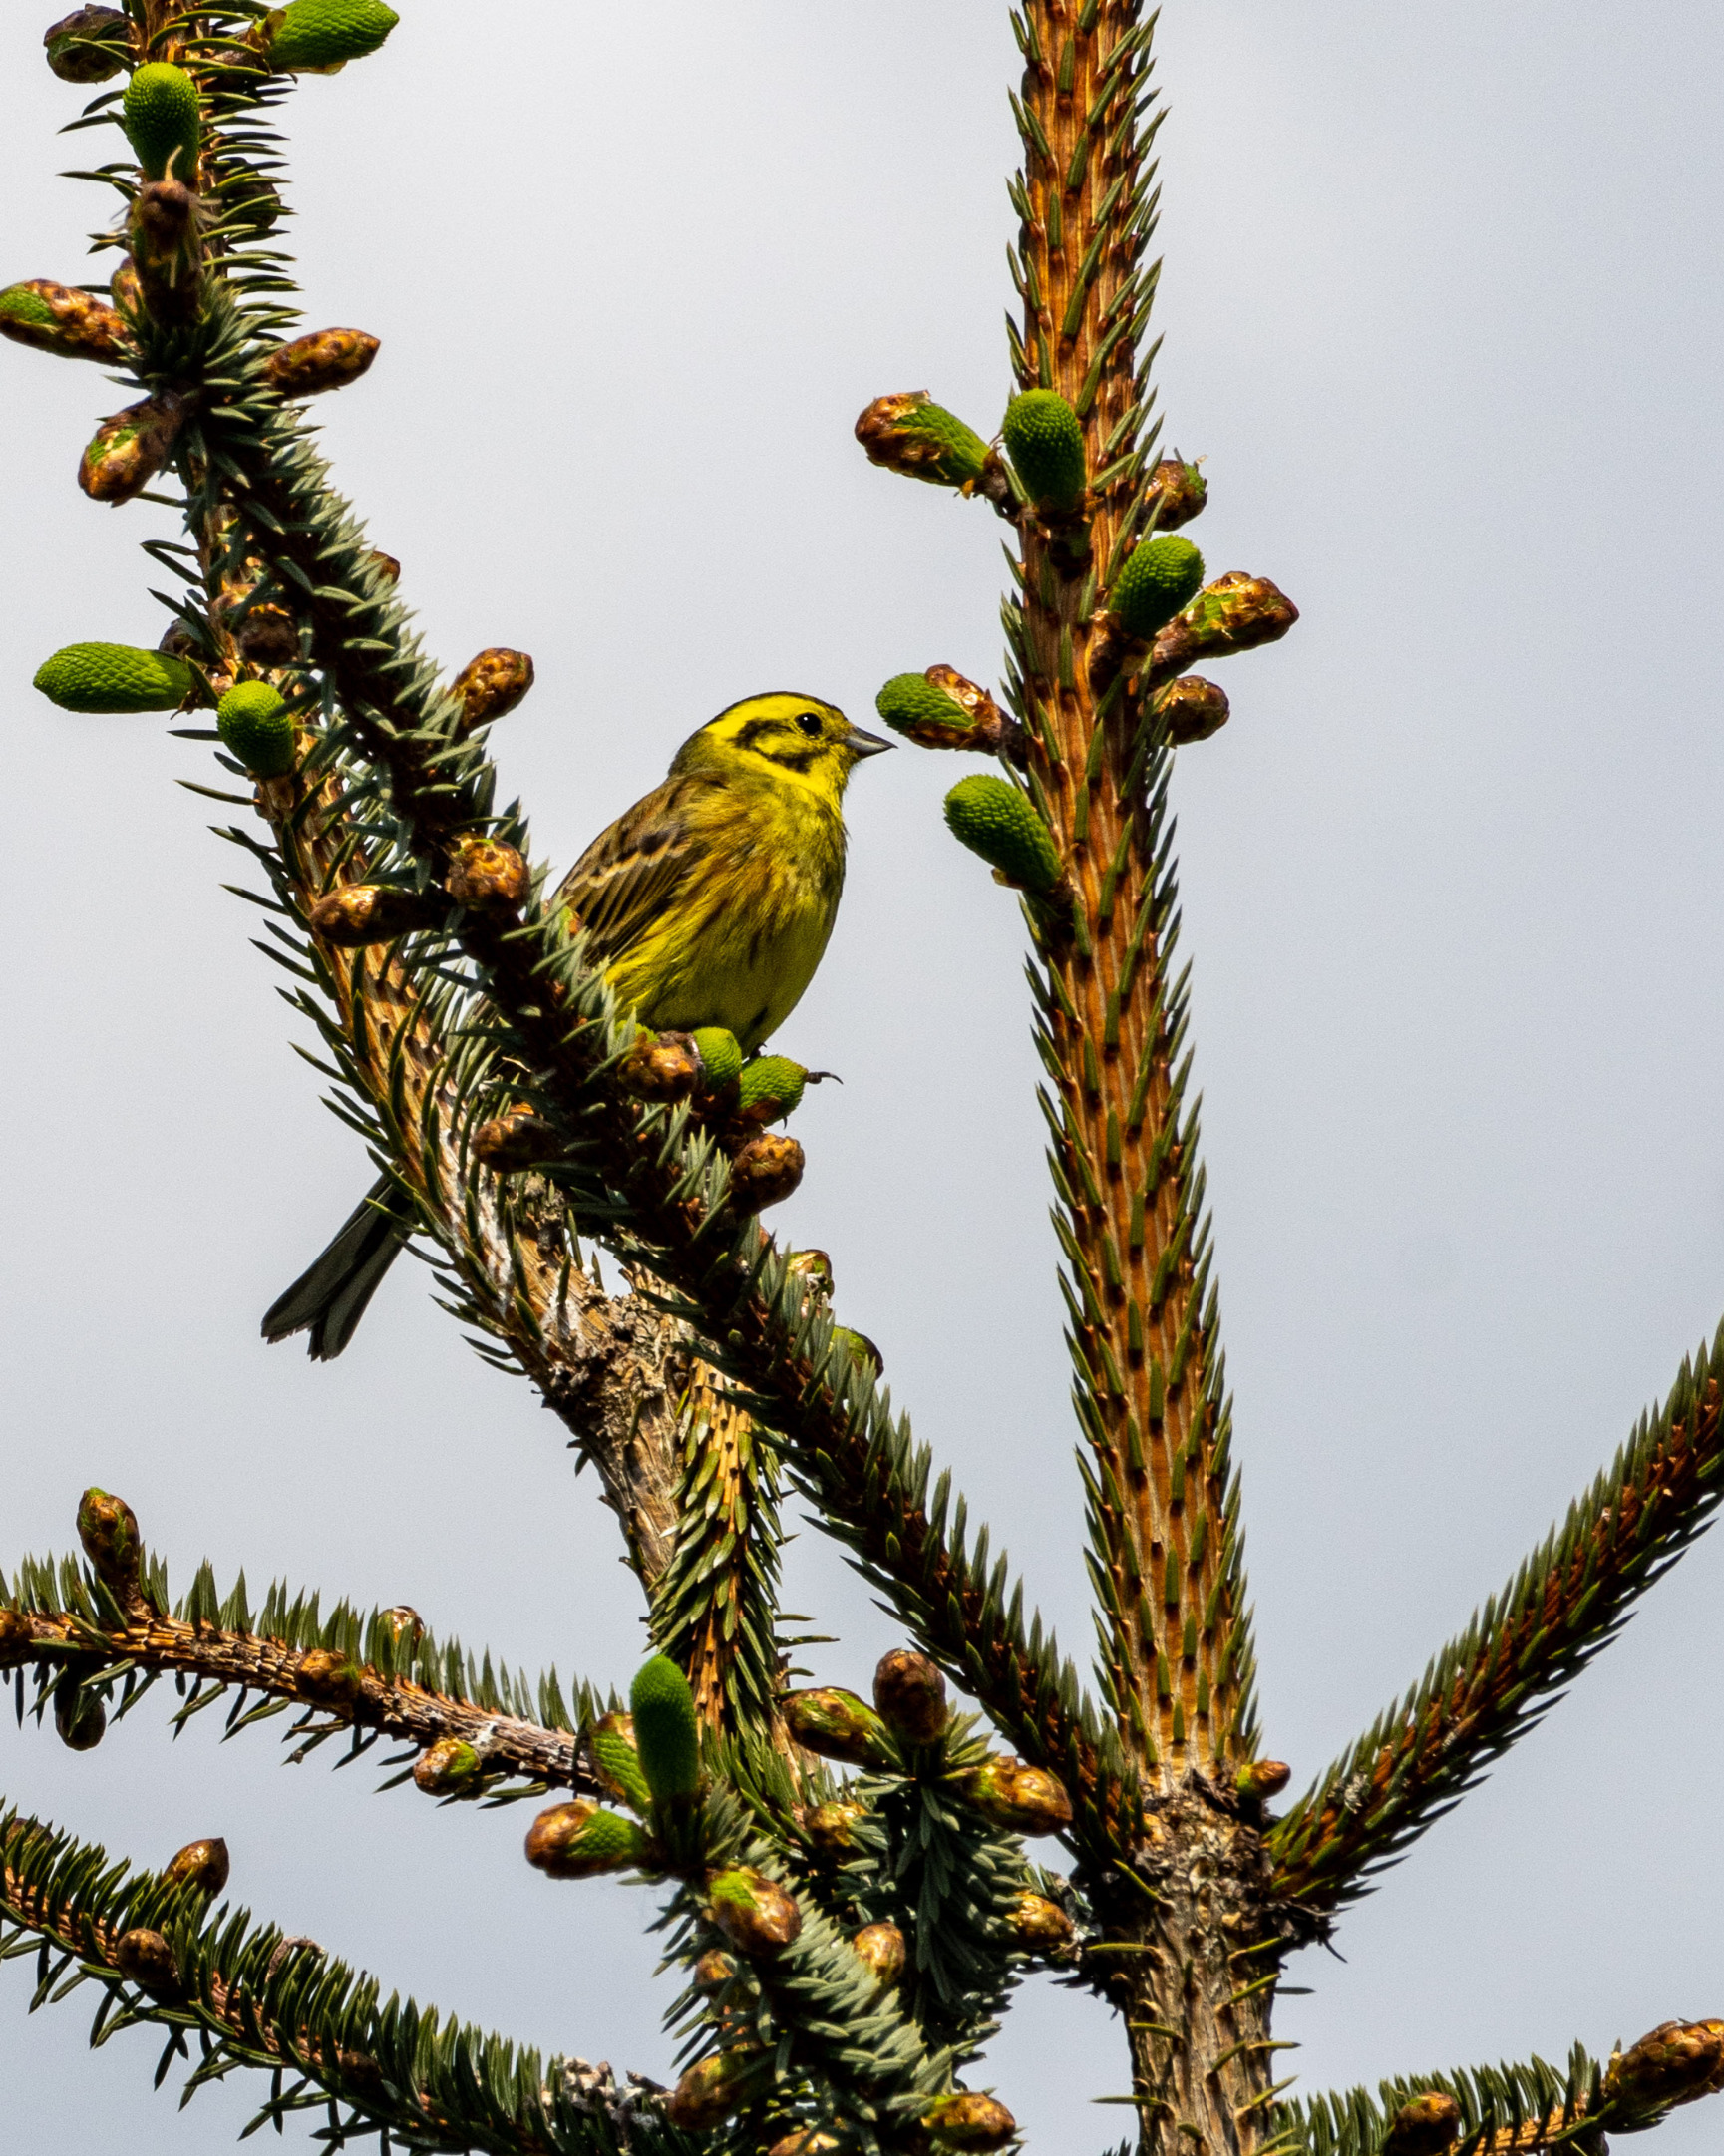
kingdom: Animalia
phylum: Chordata
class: Aves
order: Passeriformes
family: Emberizidae
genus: Emberiza
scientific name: Emberiza citrinella
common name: Gulspurv
